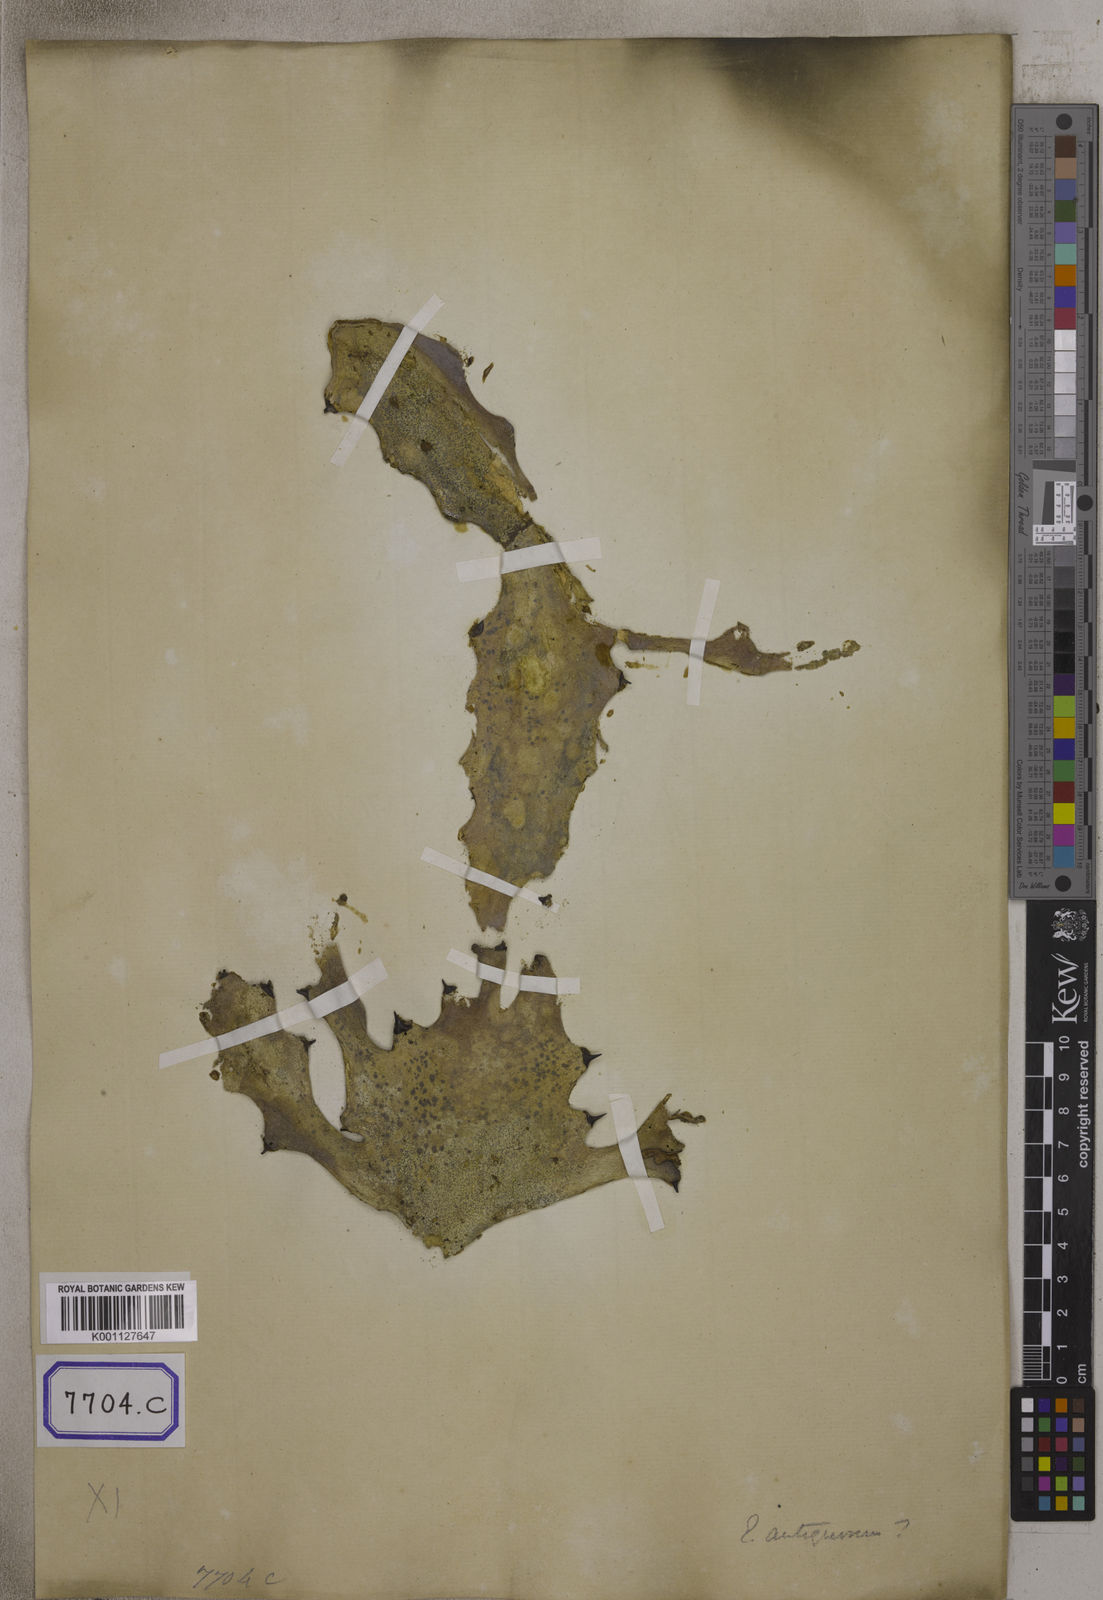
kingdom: Plantae
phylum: Tracheophyta
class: Magnoliopsida
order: Malpighiales
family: Euphorbiaceae
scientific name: Euphorbiaceae
